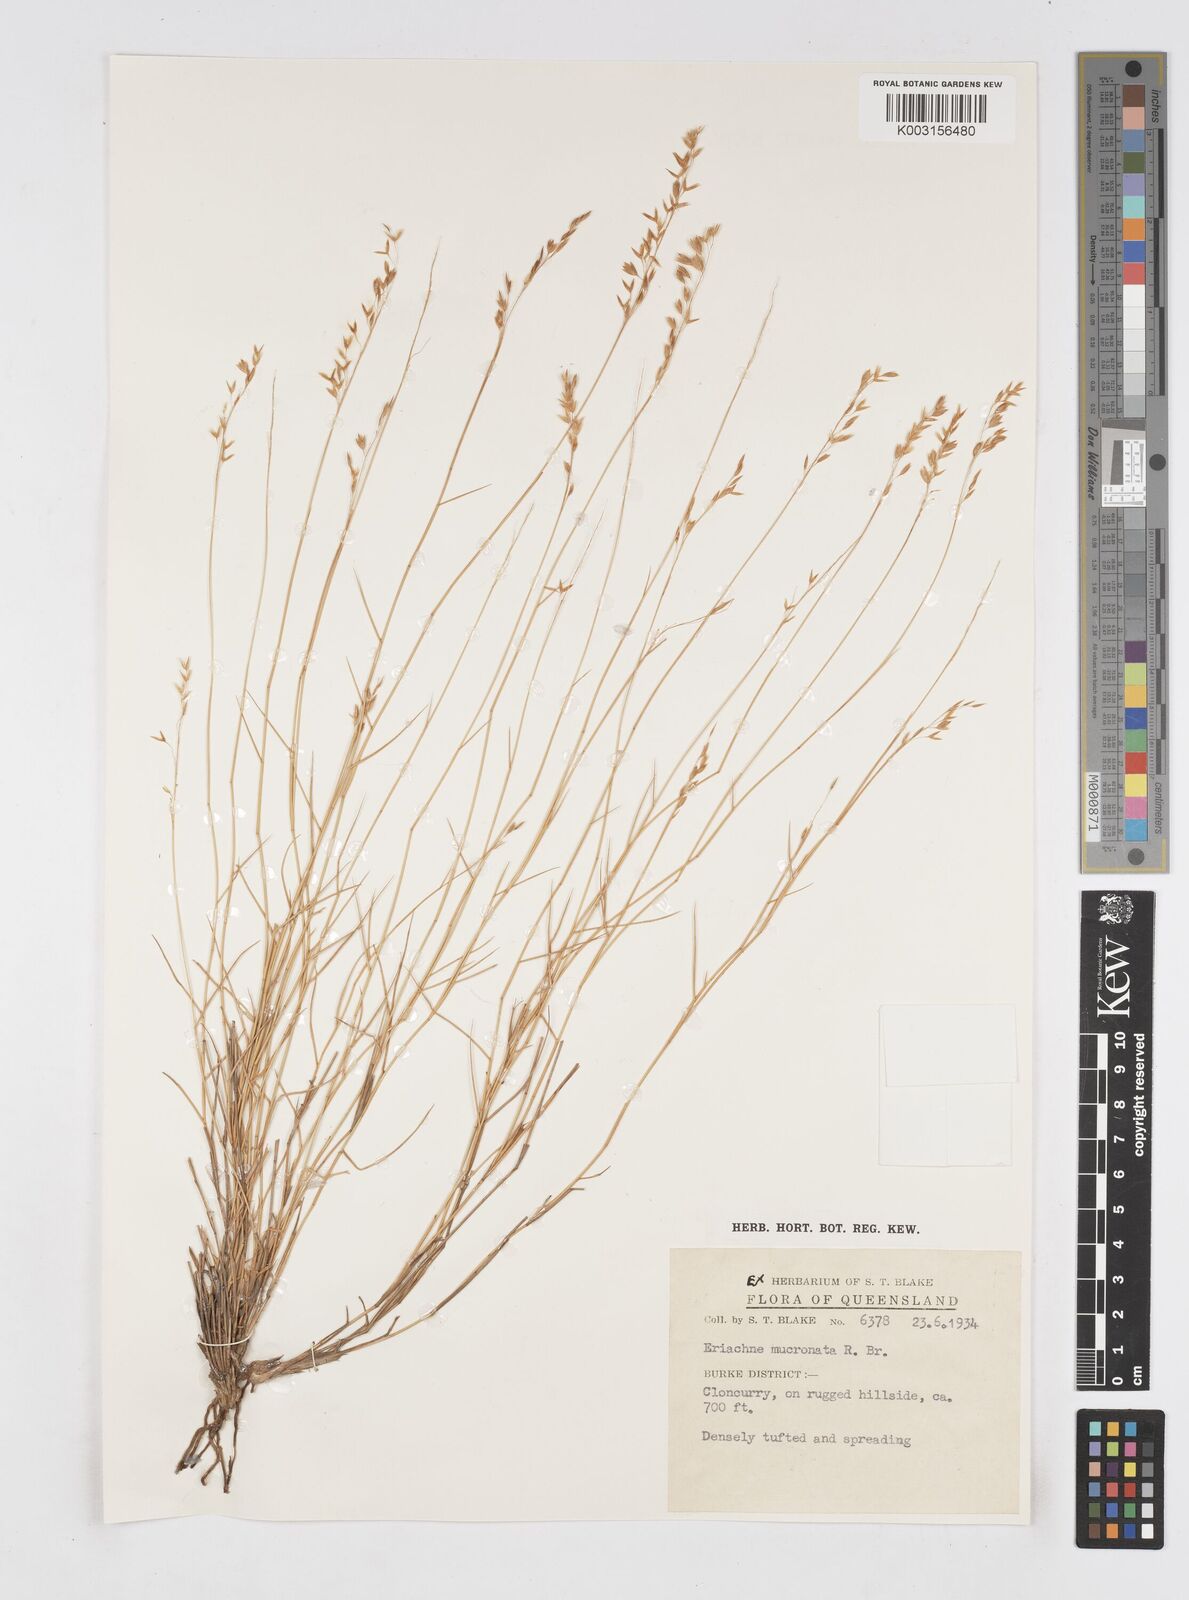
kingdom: Plantae
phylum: Tracheophyta
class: Liliopsida
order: Poales
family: Poaceae
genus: Eriachne
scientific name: Eriachne mucronata
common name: Mountain wanderrie grass
